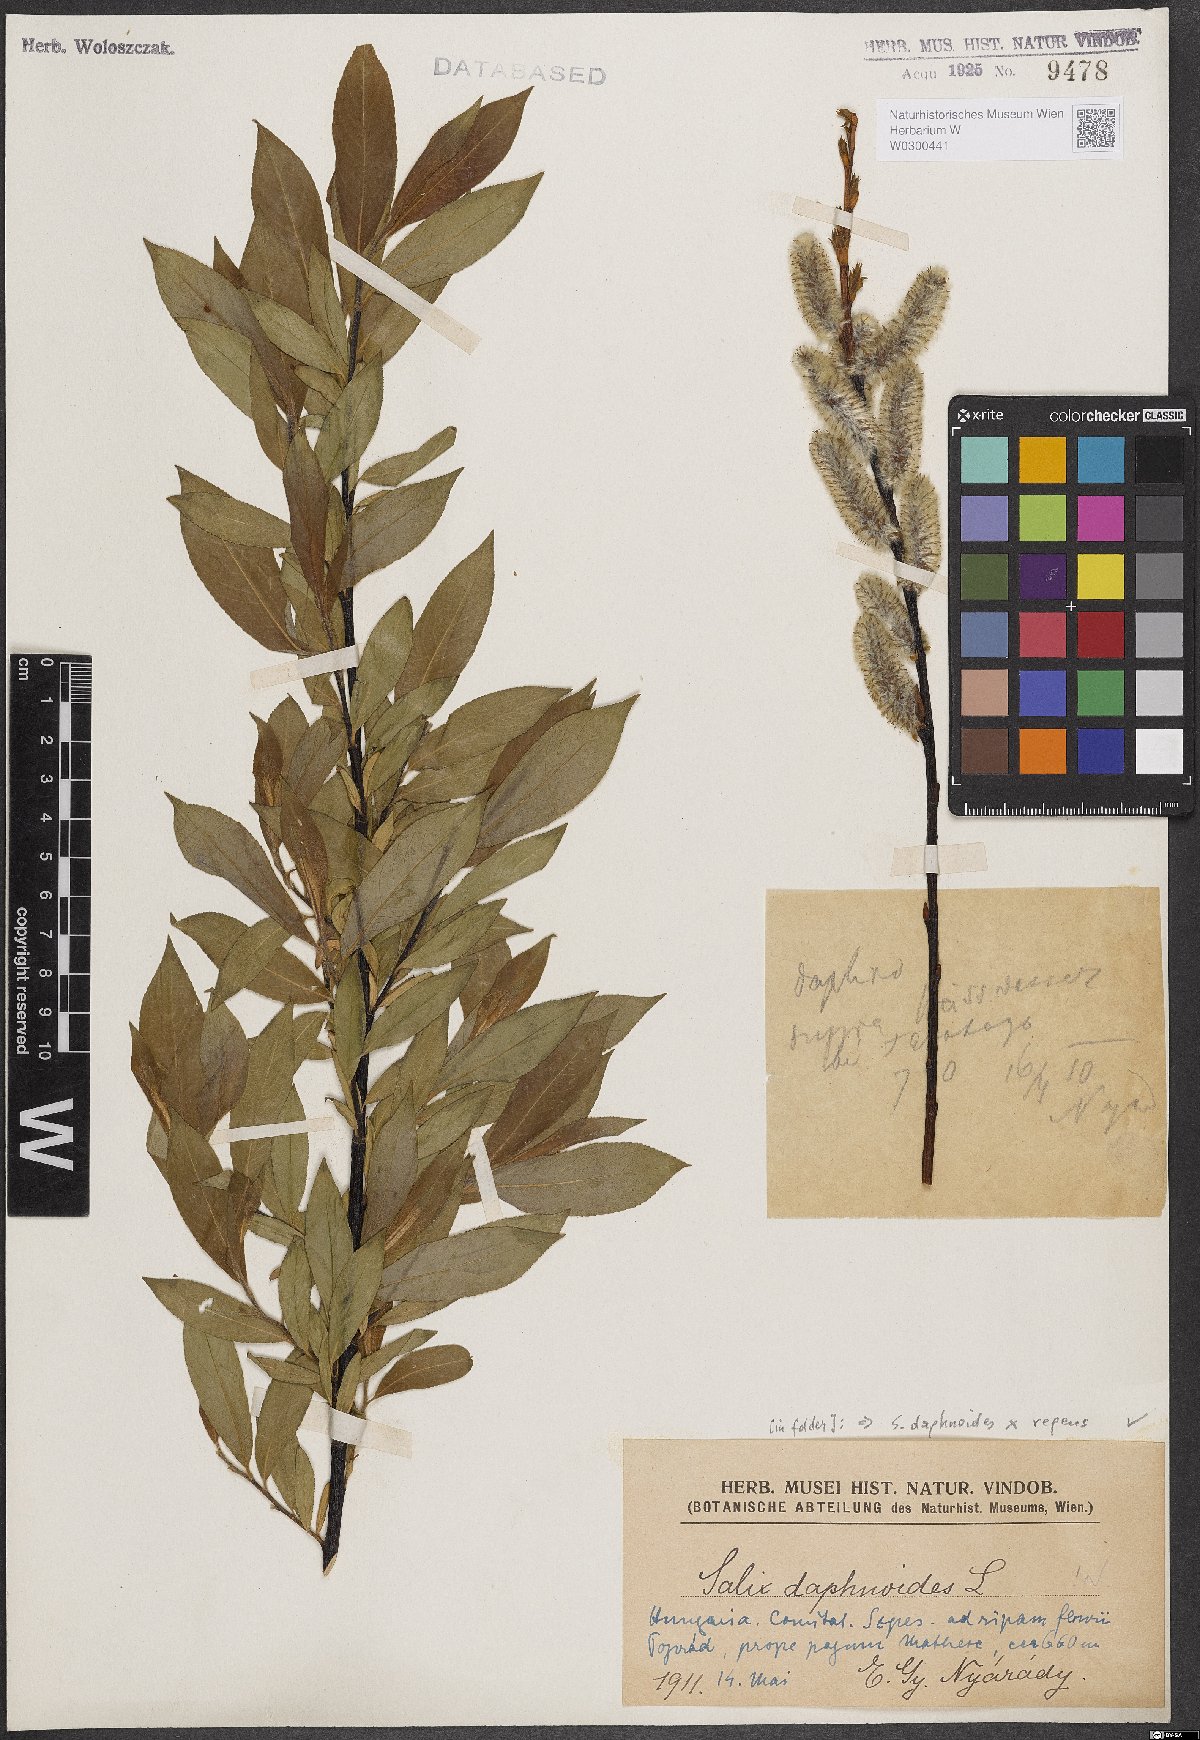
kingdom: Plantae
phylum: Tracheophyta
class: Magnoliopsida
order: Malpighiales
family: Salicaceae
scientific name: Salicaceae
